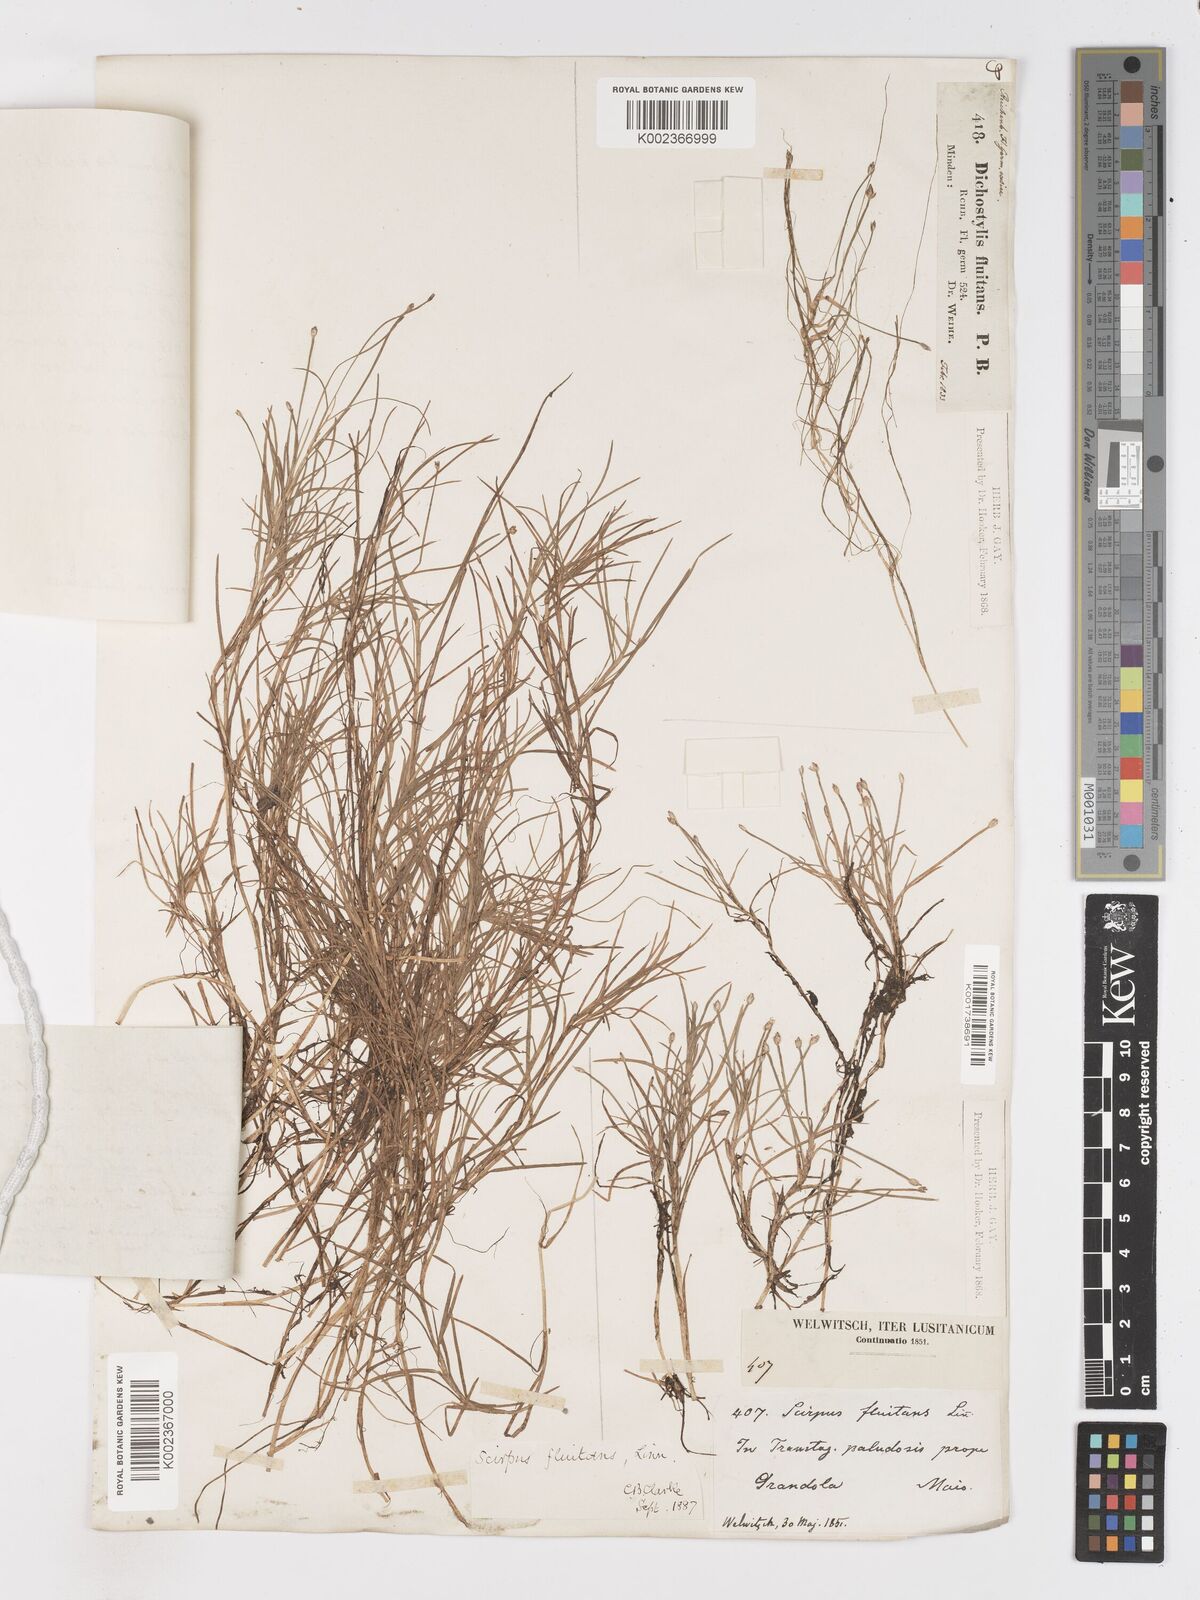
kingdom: Plantae
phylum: Tracheophyta
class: Liliopsida
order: Poales
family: Cyperaceae
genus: Isolepis
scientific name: Isolepis fluitans
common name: Floating club-rush
